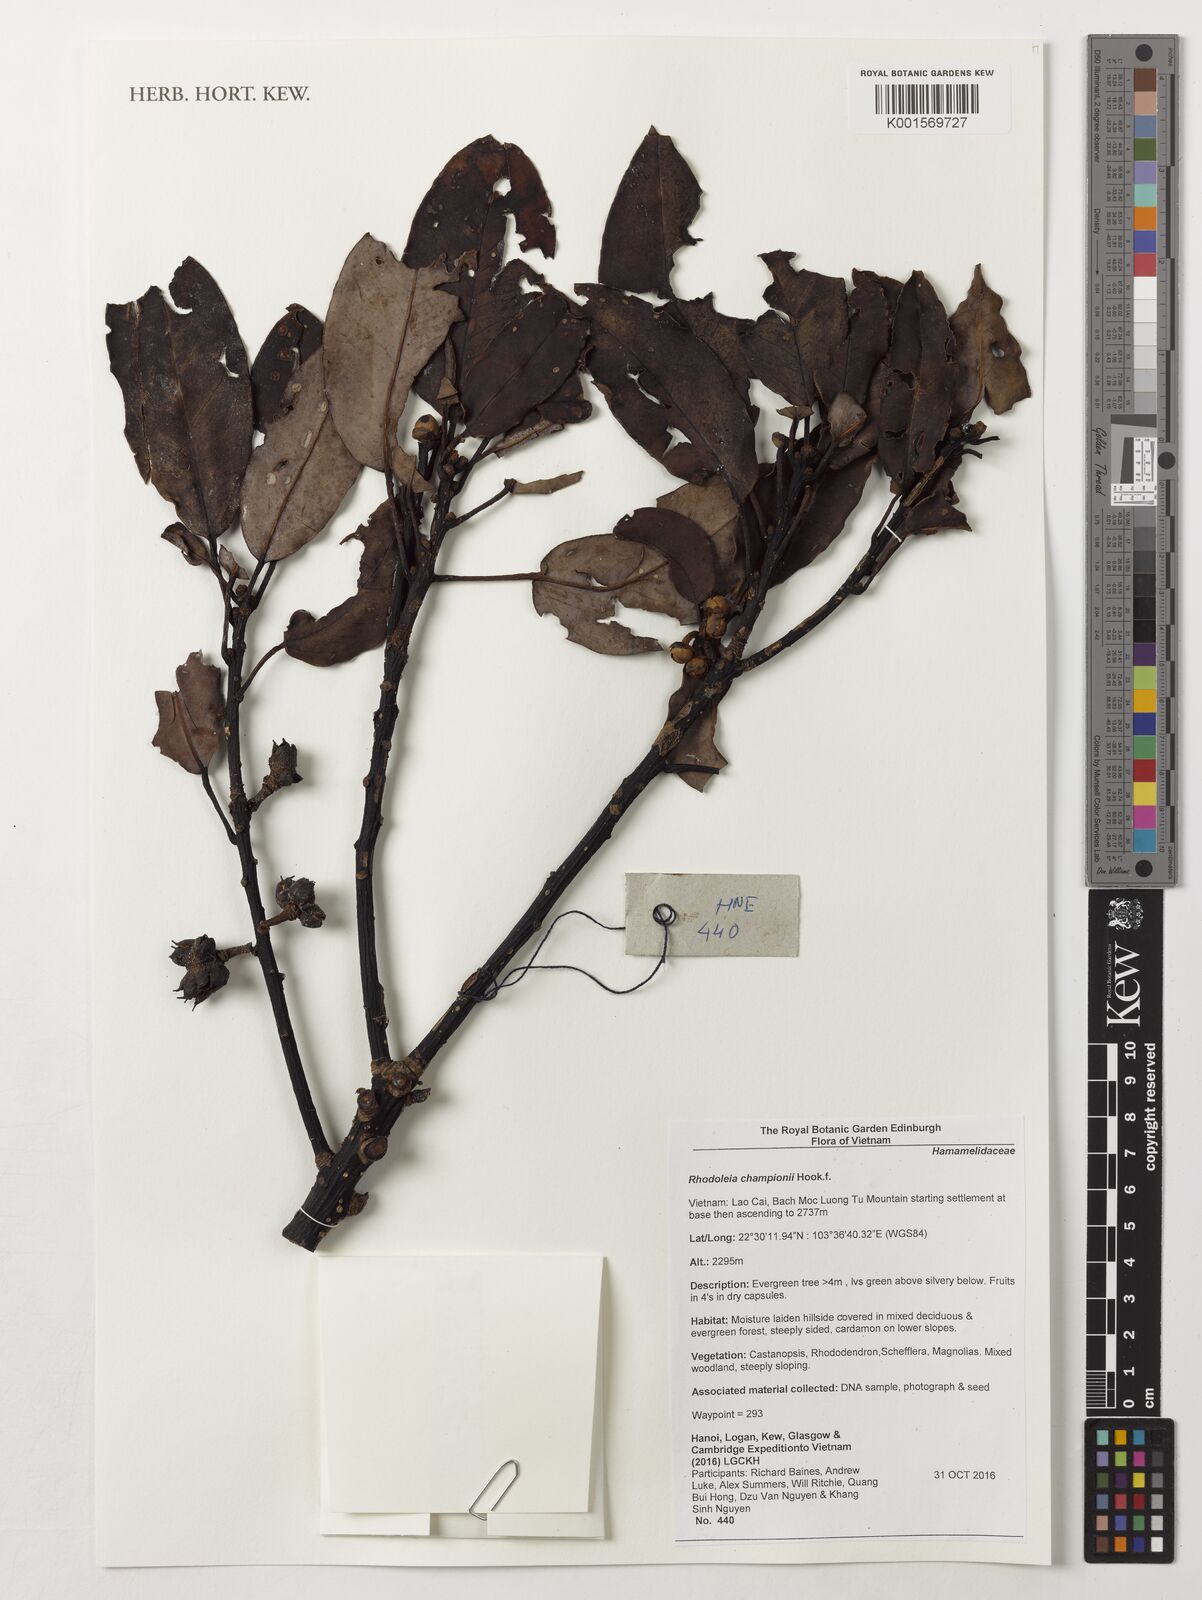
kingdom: Plantae
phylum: Tracheophyta
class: Magnoliopsida
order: Saxifragales
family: Hamamelidaceae
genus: Rhodoleia
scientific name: Rhodoleia championii
